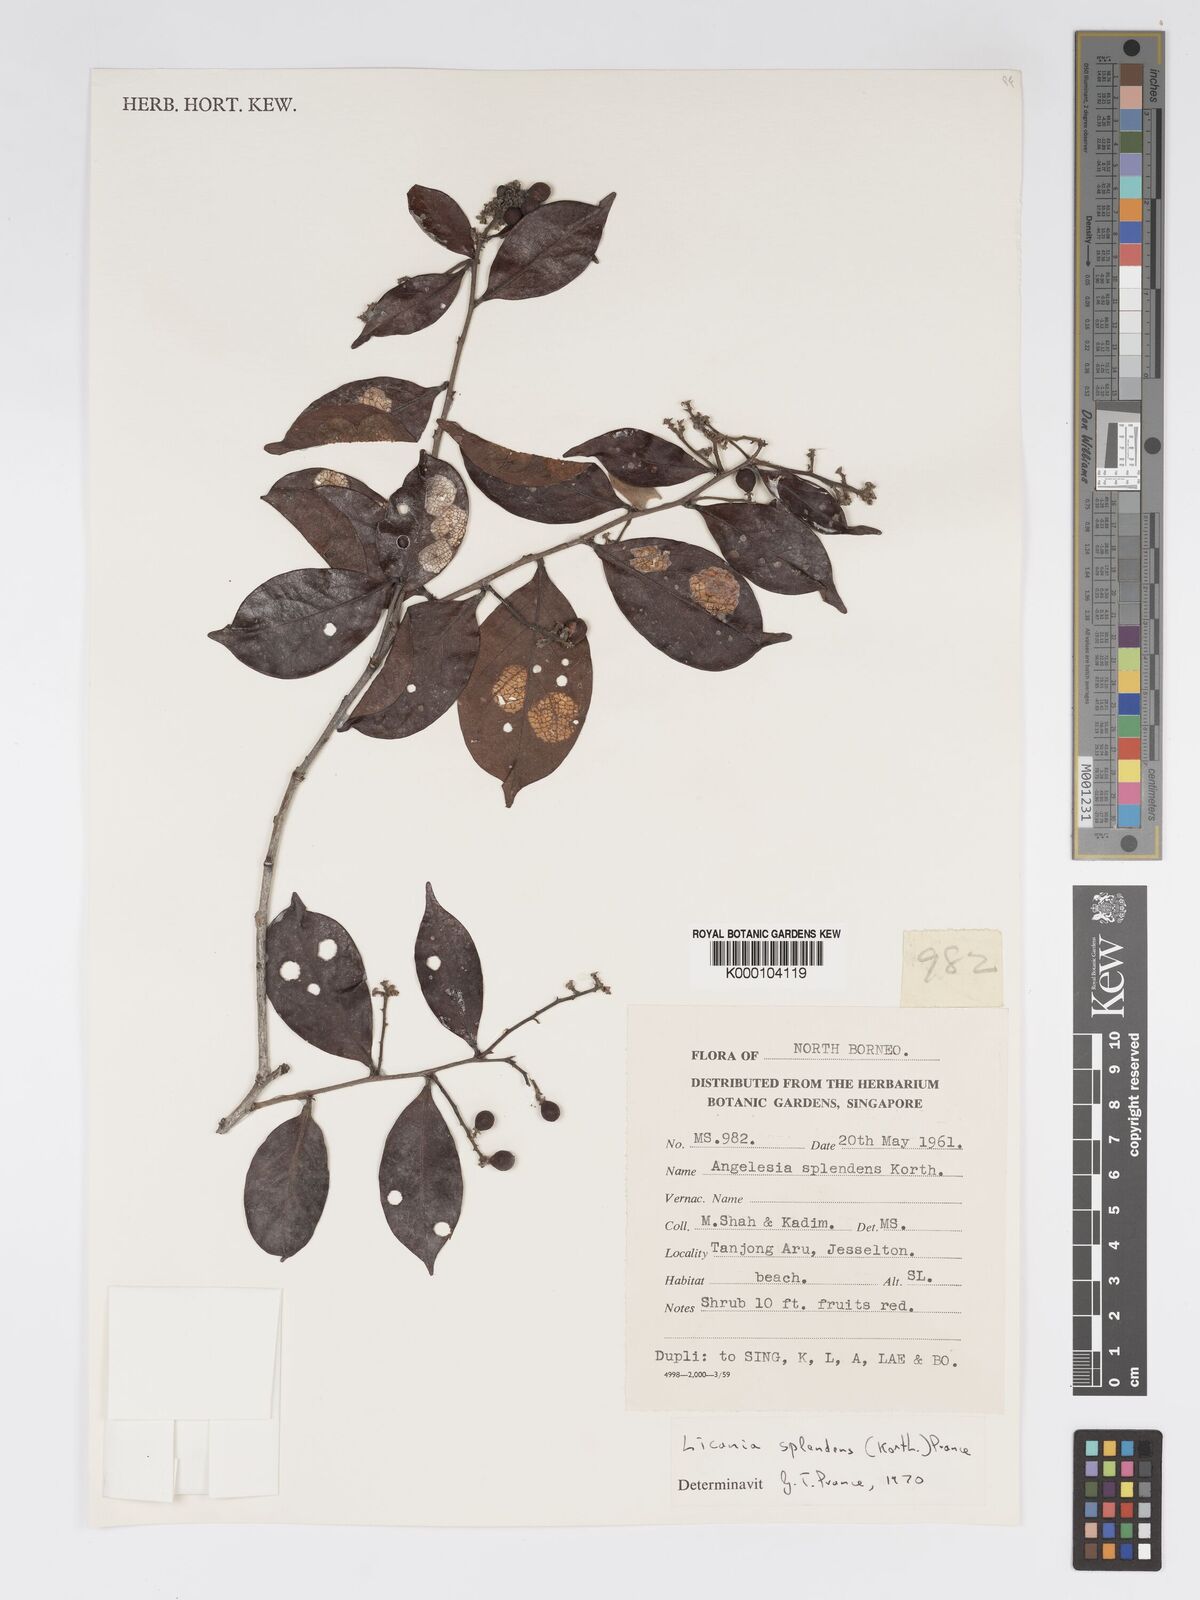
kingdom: Plantae
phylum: Tracheophyta
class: Magnoliopsida
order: Malpighiales
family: Chrysobalanaceae
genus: Angelesia
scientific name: Angelesia splendens
